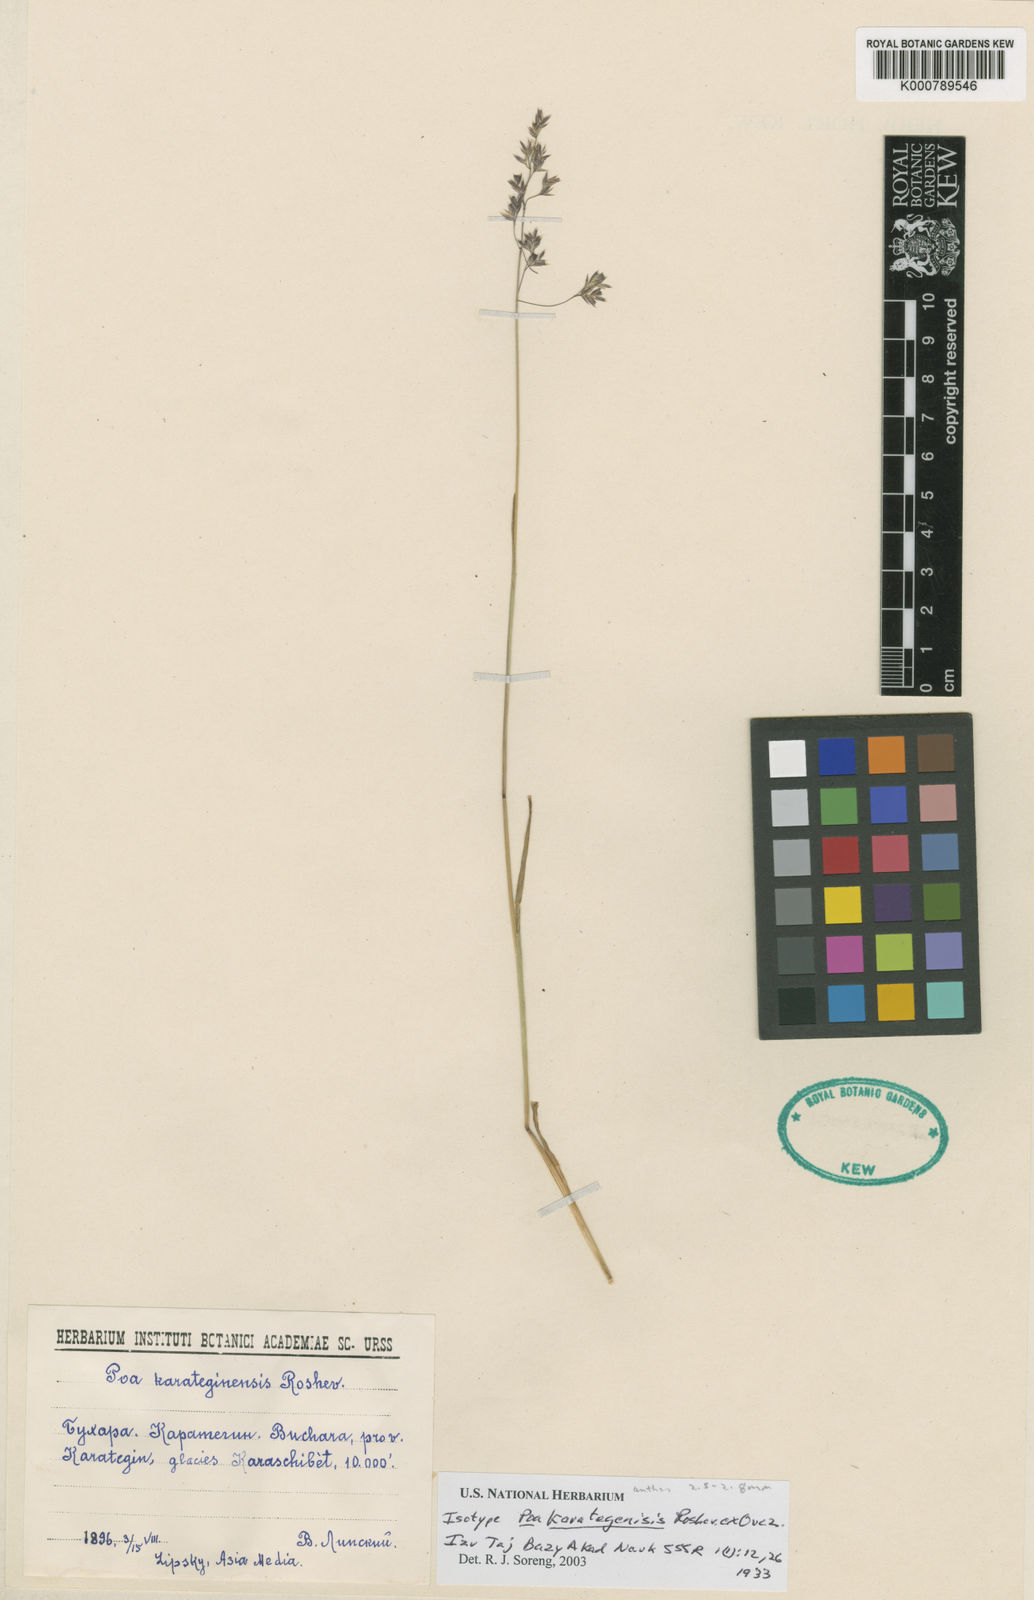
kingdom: Plantae
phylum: Tracheophyta
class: Liliopsida
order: Poales
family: Poaceae
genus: Poa
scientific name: Poa bucharica
